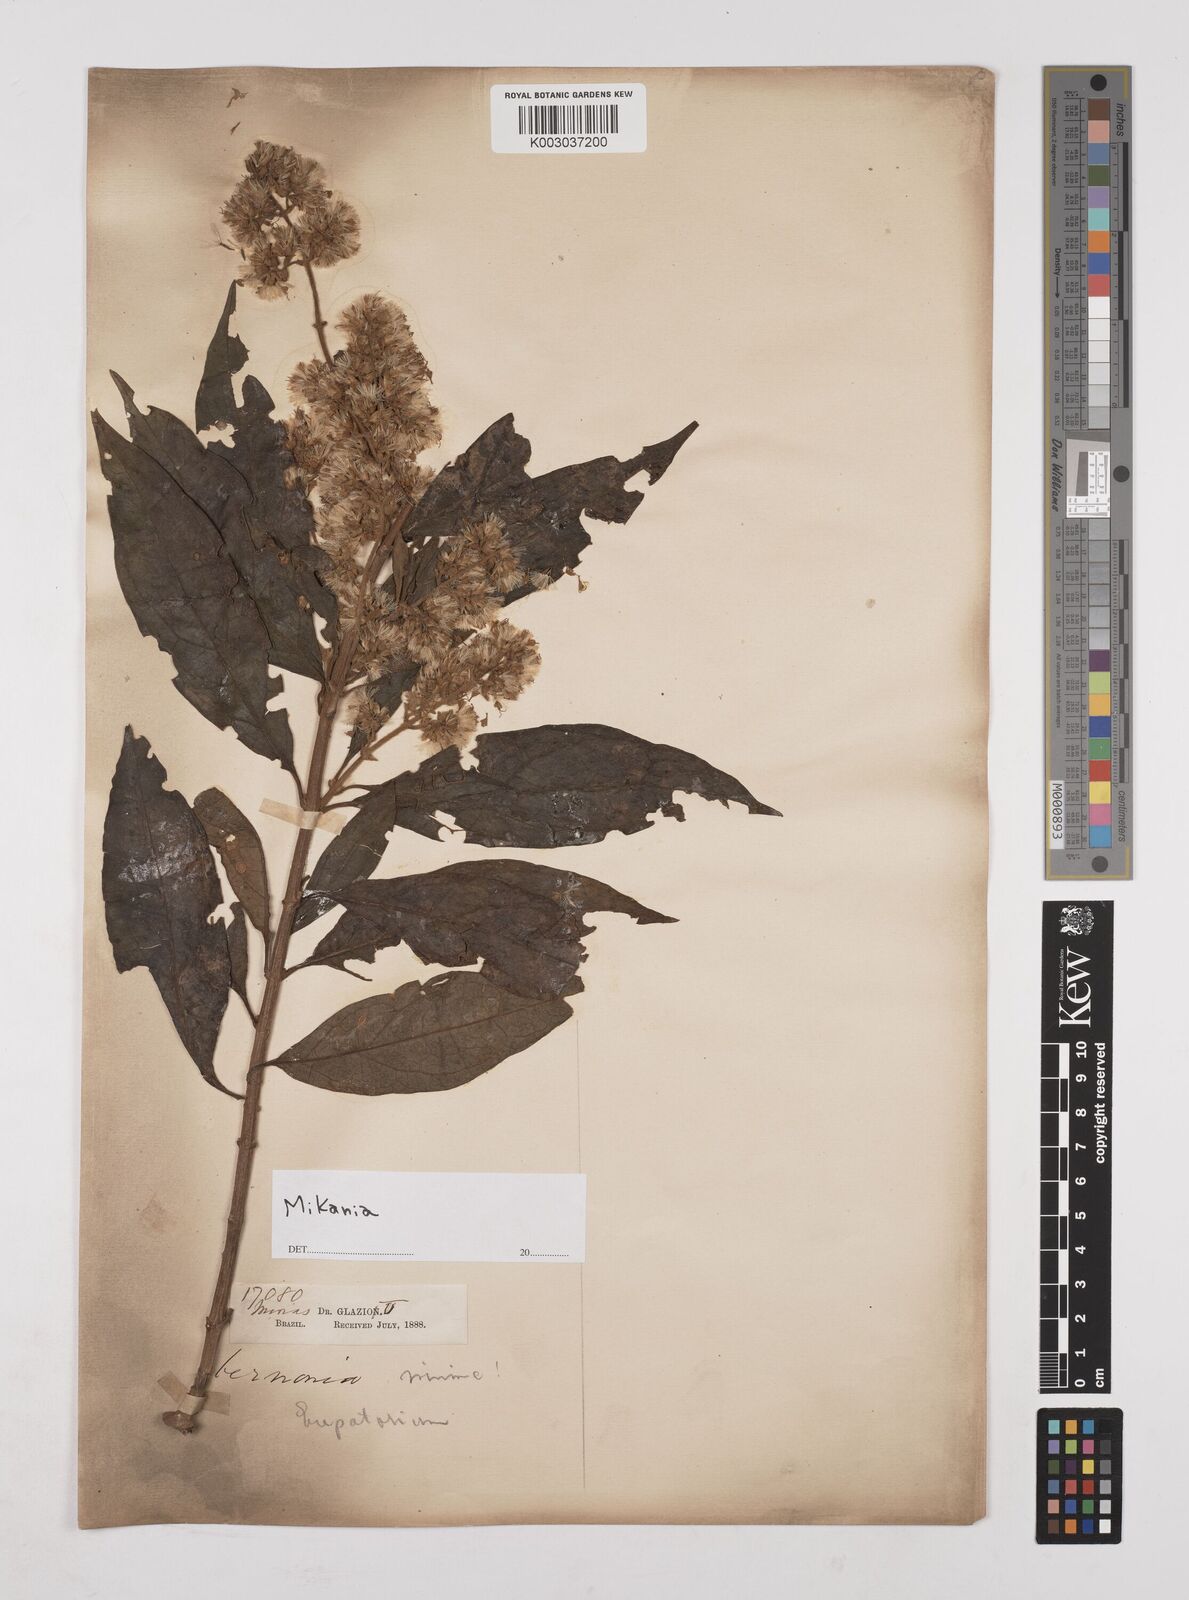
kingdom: Plantae
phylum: Tracheophyta
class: Magnoliopsida
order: Asterales
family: Asteraceae
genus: Mikania
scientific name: Mikania
